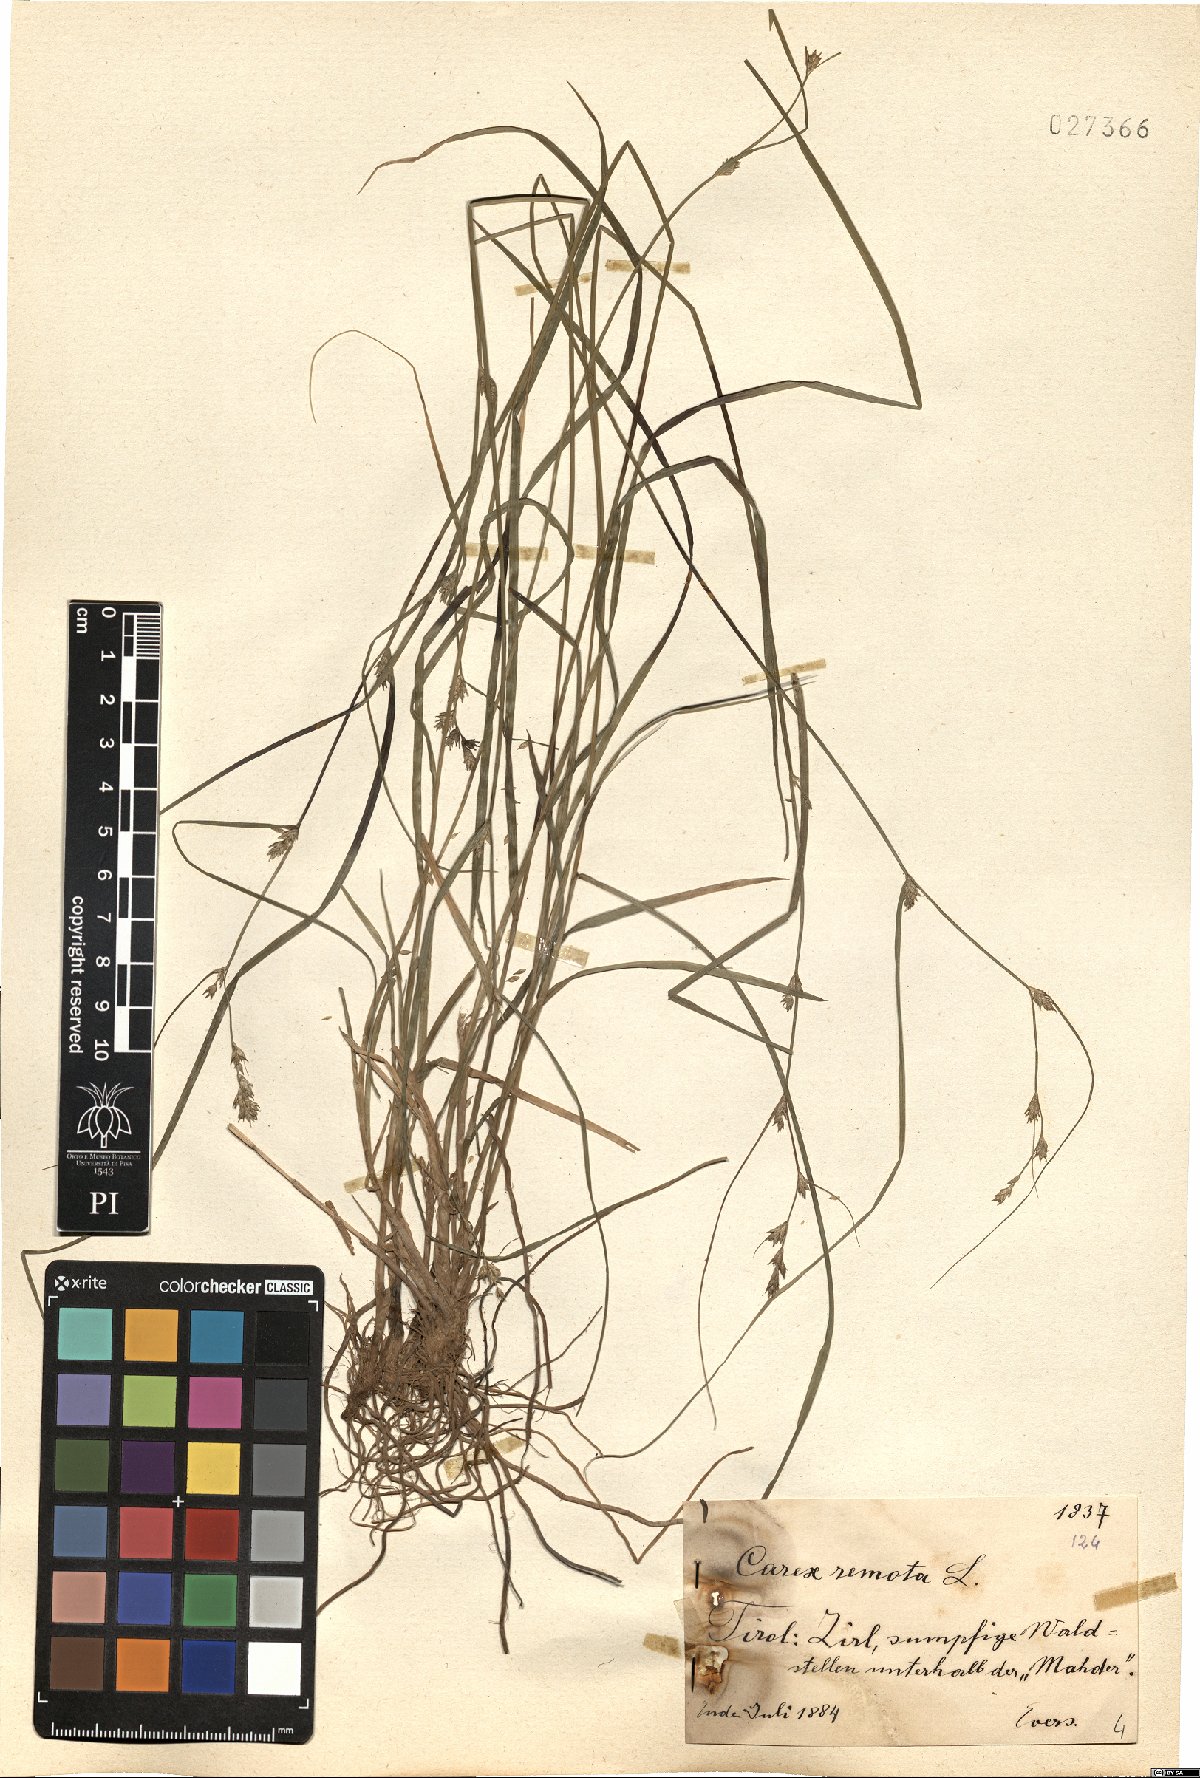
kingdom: Plantae
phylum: Tracheophyta
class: Liliopsida
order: Poales
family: Cyperaceae
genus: Carex
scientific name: Carex remota
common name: Remote sedge
